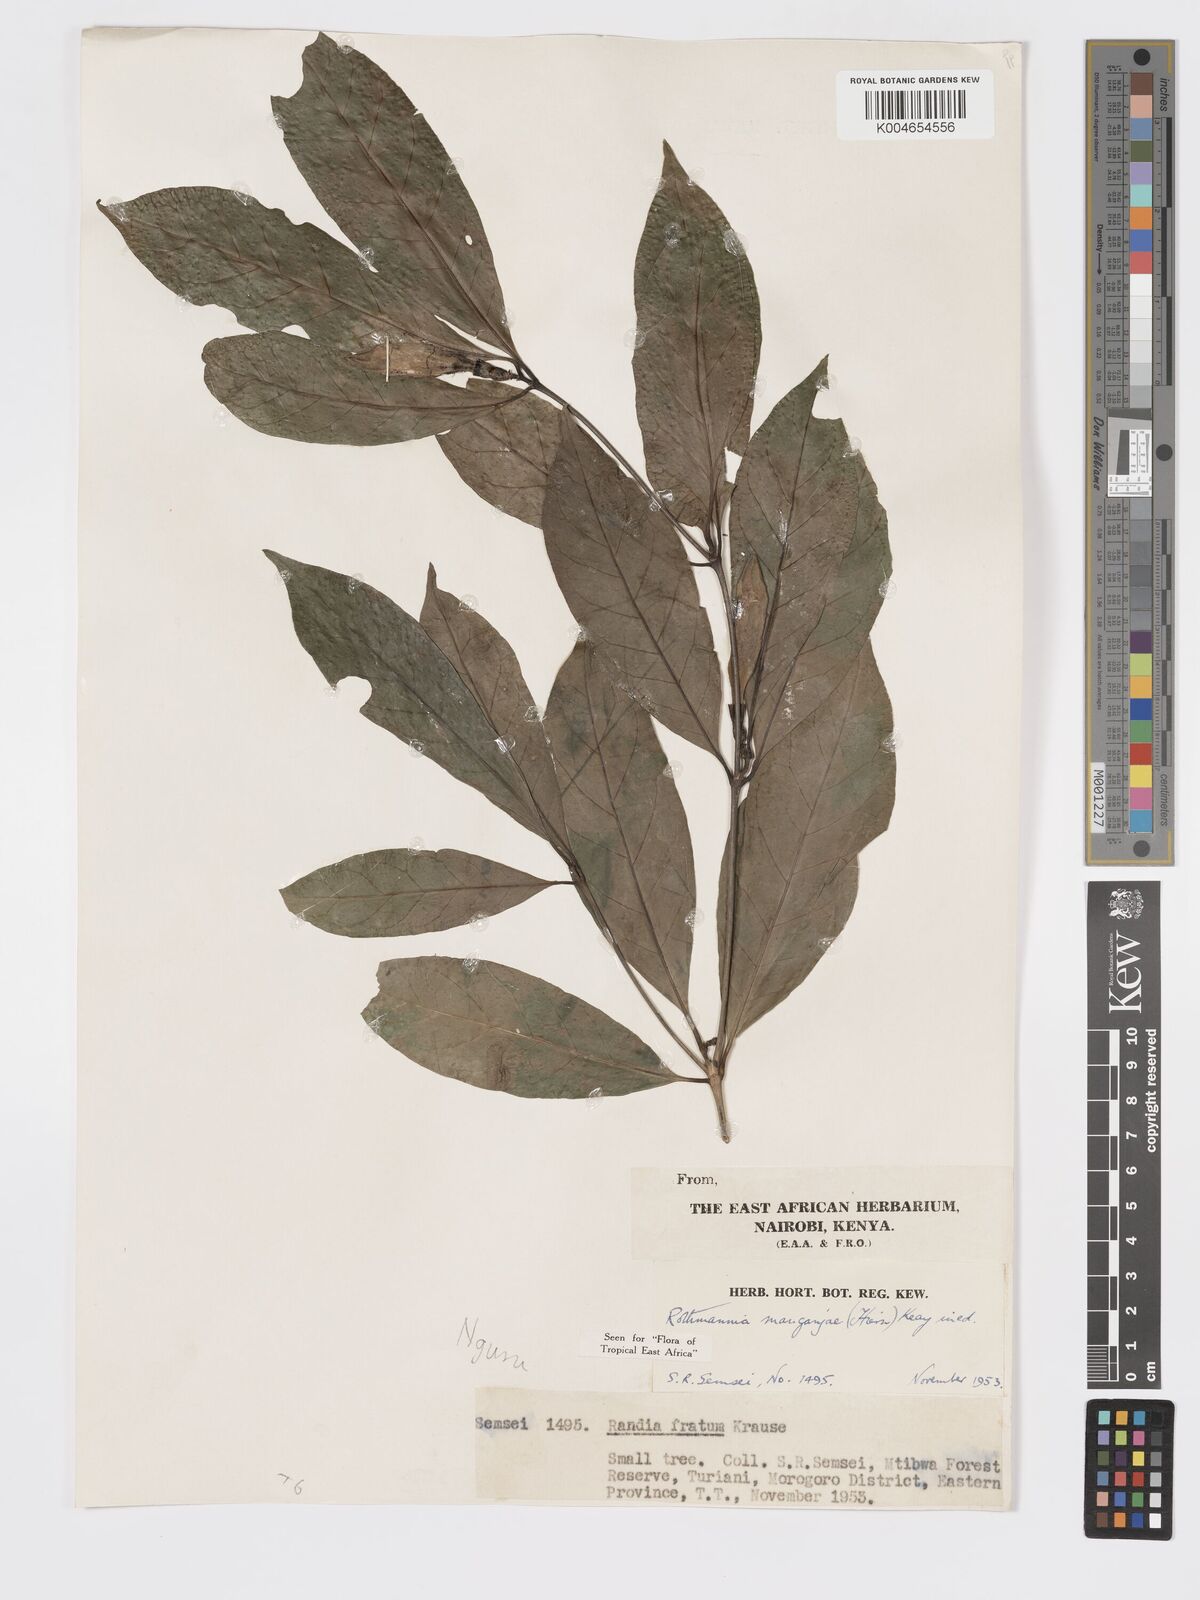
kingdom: Plantae
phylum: Tracheophyta
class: Magnoliopsida
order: Gentianales
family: Rubiaceae
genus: Rothmannia
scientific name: Rothmannia manganjae
